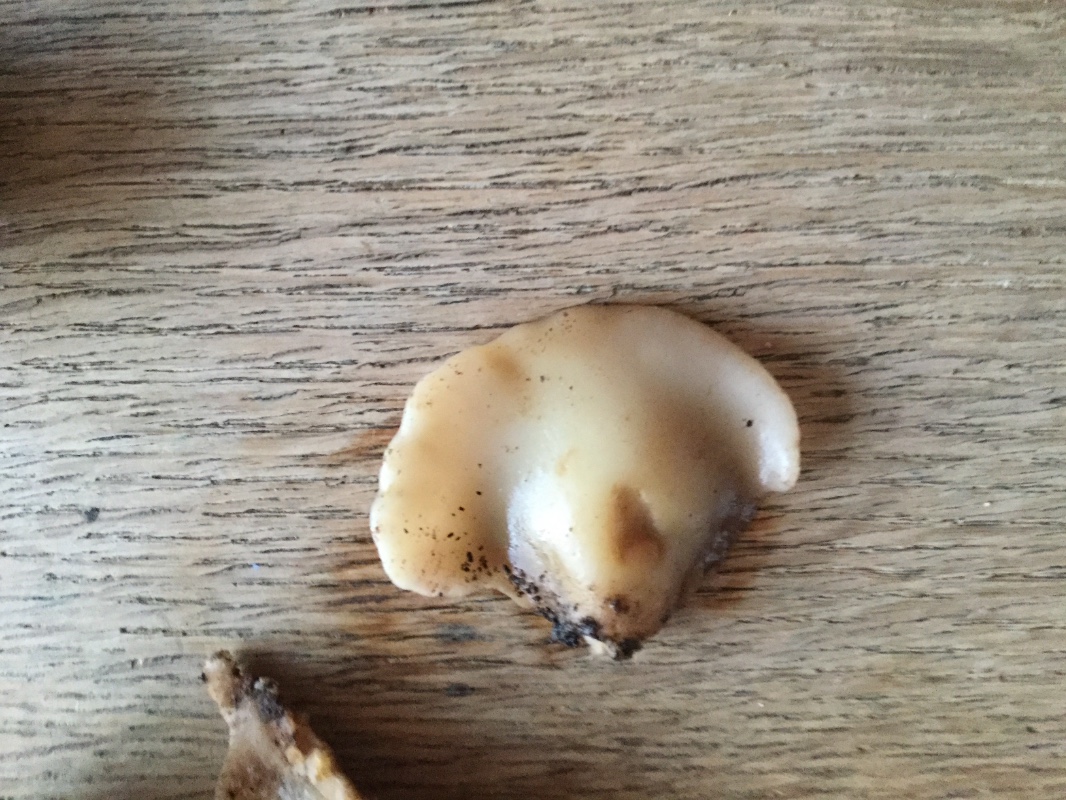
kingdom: Fungi
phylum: Basidiomycota
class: Agaricomycetes
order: Agaricales
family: Crepidotaceae
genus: Crepidotus
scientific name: Crepidotus mollis
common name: blød muslingesvamp
